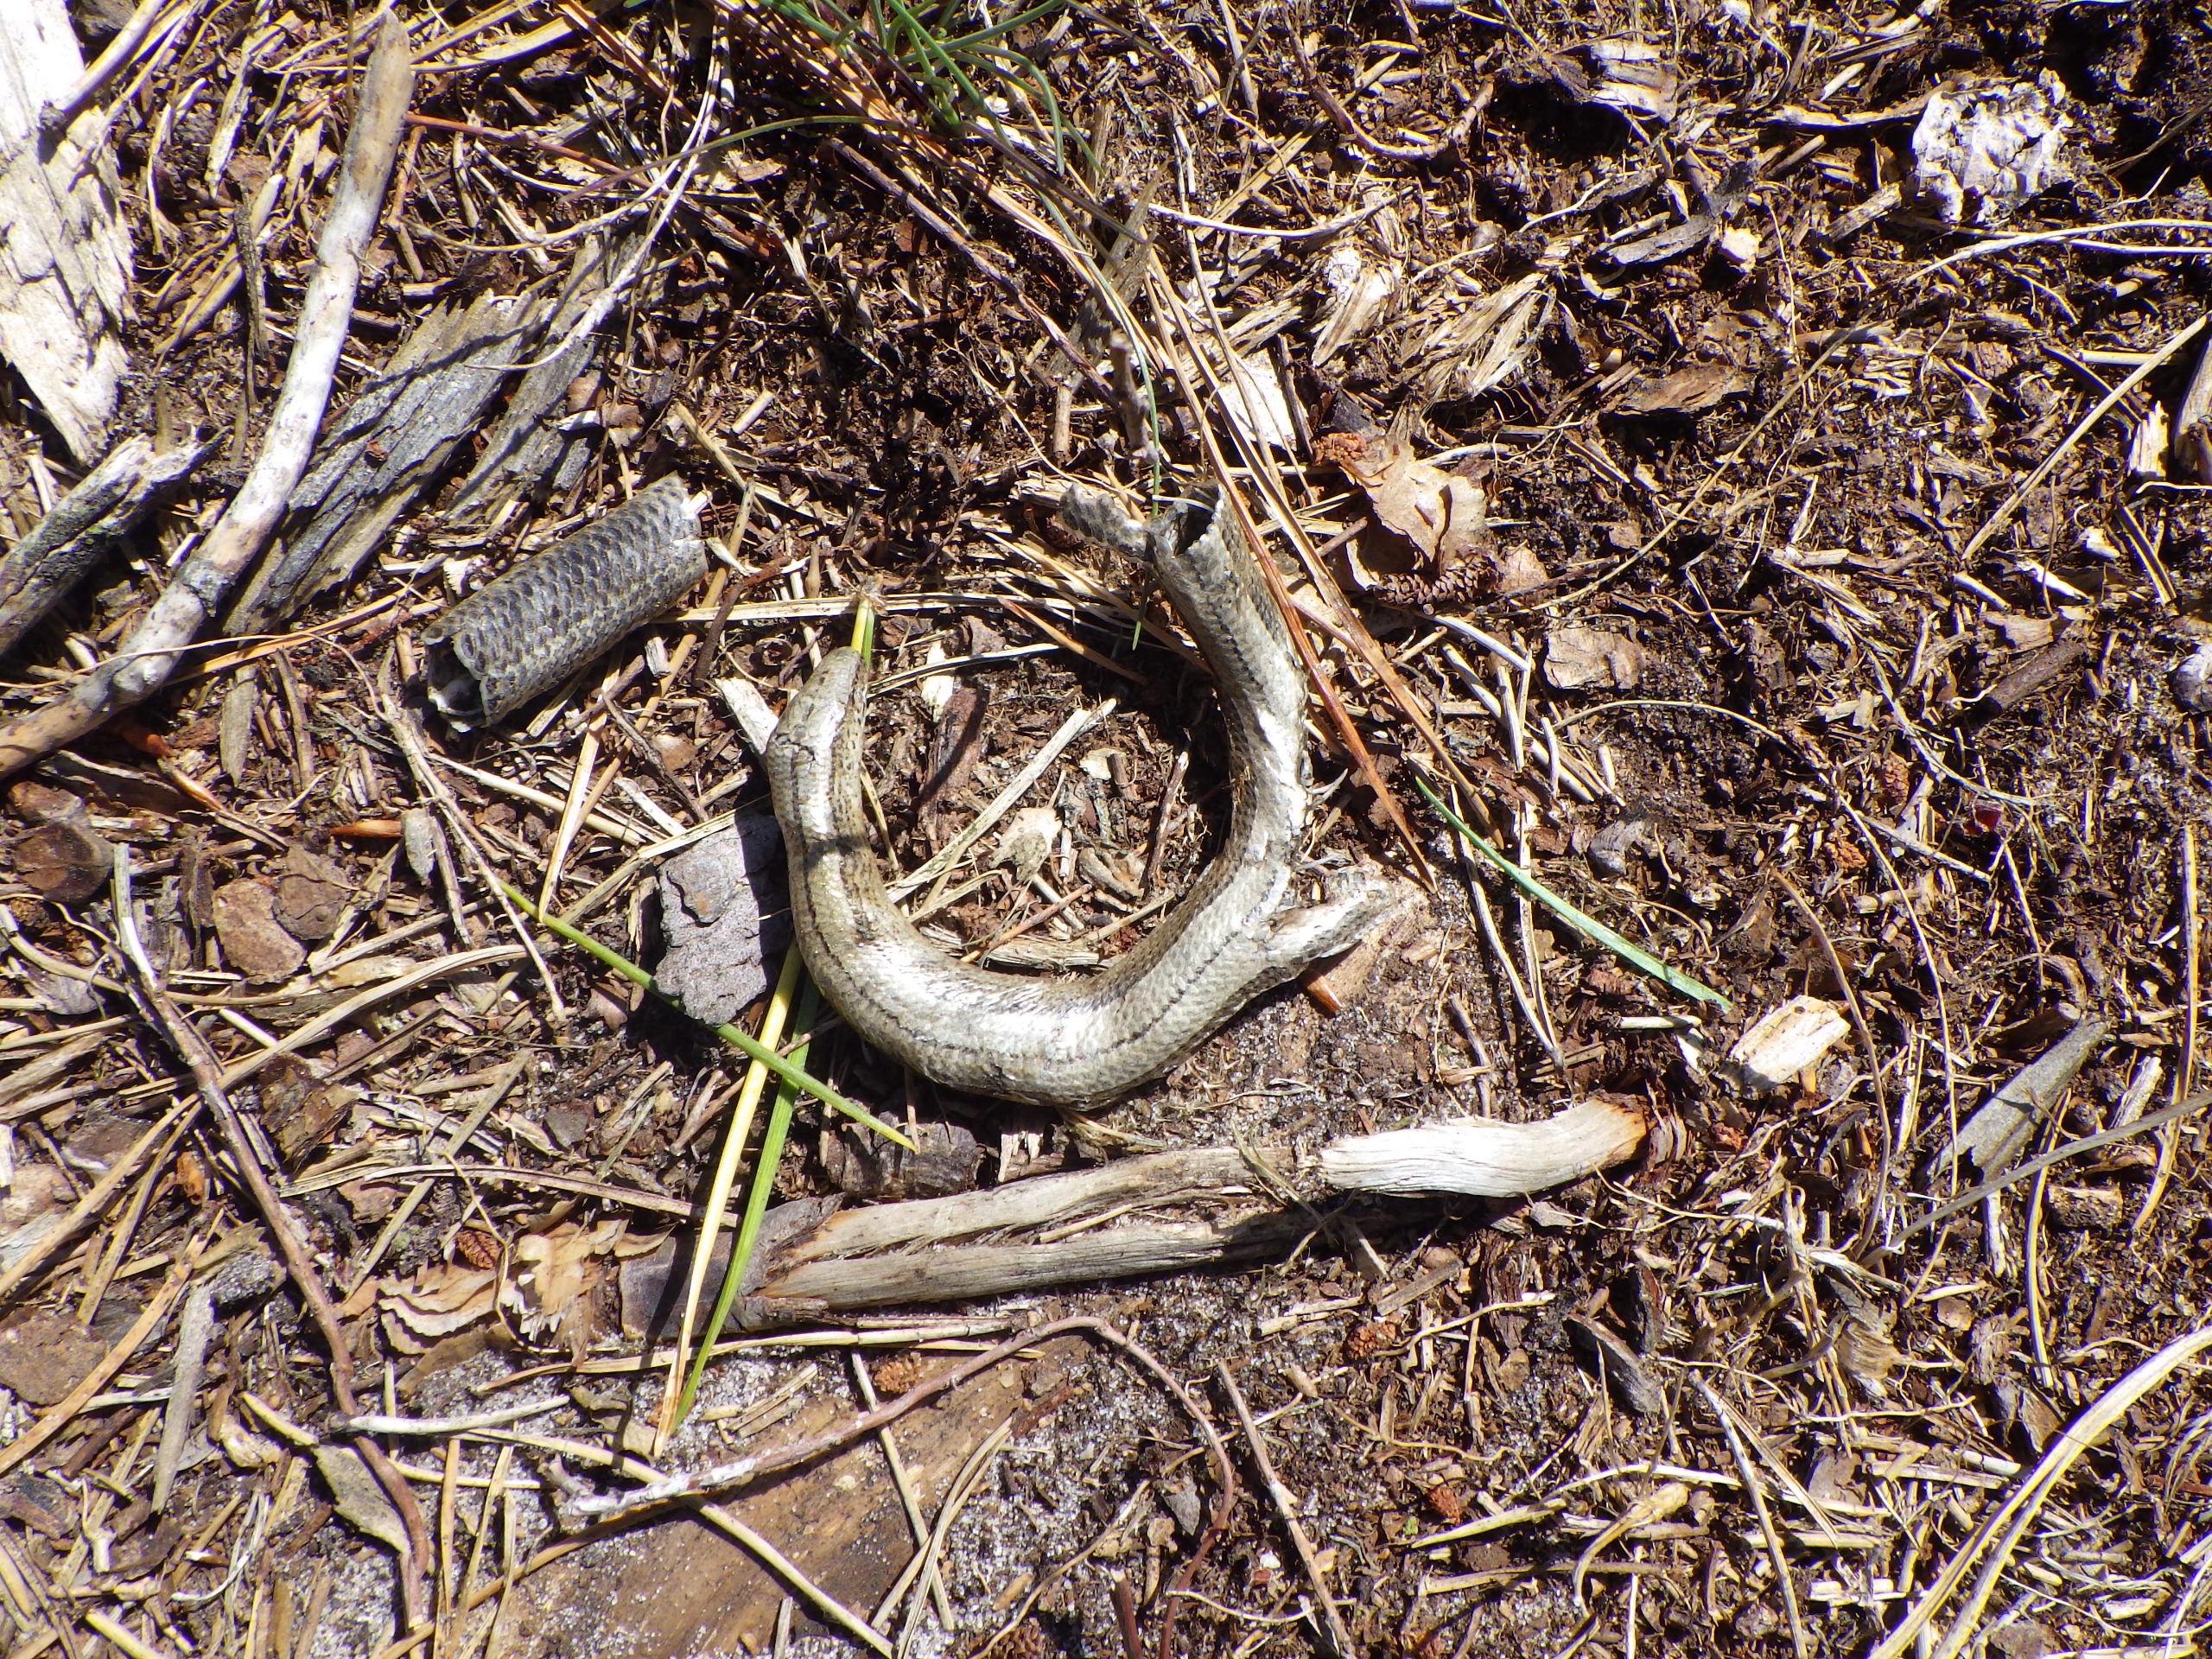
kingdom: Animalia
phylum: Chordata
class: Squamata
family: Anguidae
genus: Anguis
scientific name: Anguis fragilis
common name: Stålorm
